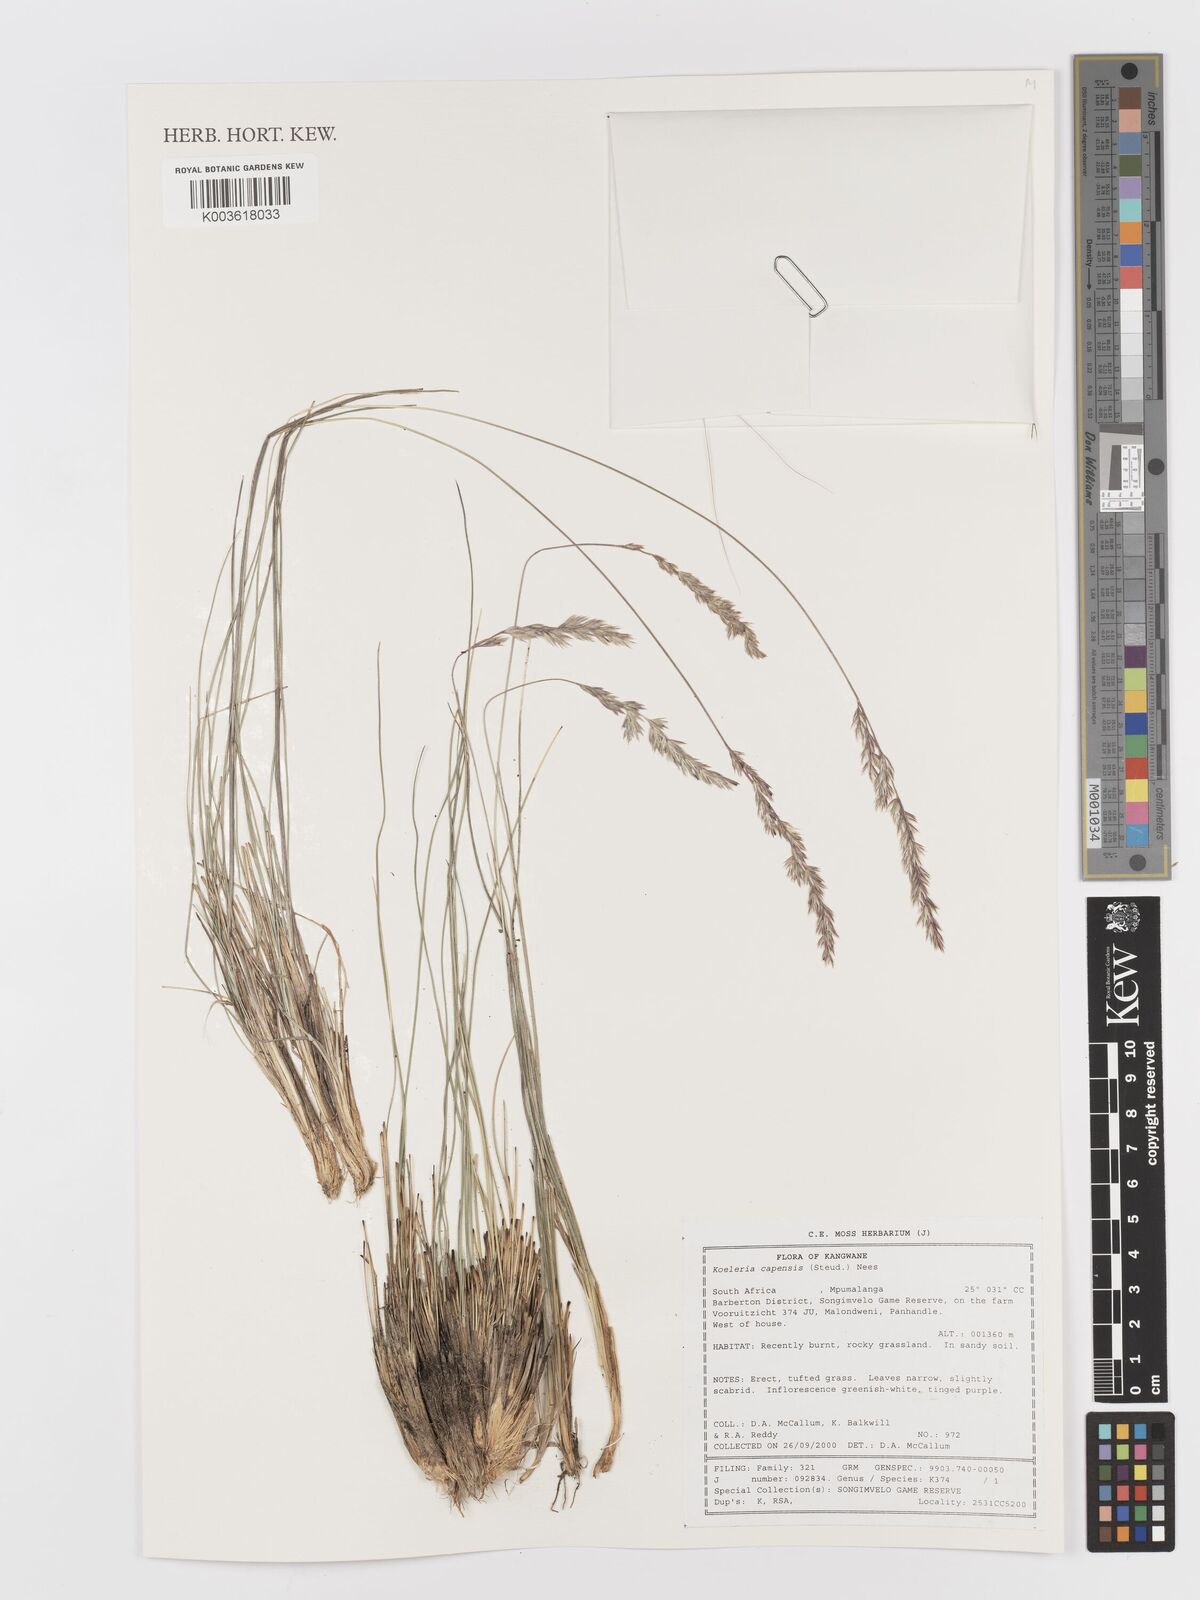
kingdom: Plantae
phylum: Tracheophyta
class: Liliopsida
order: Poales
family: Poaceae
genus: Koeleria
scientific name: Koeleria capensis
